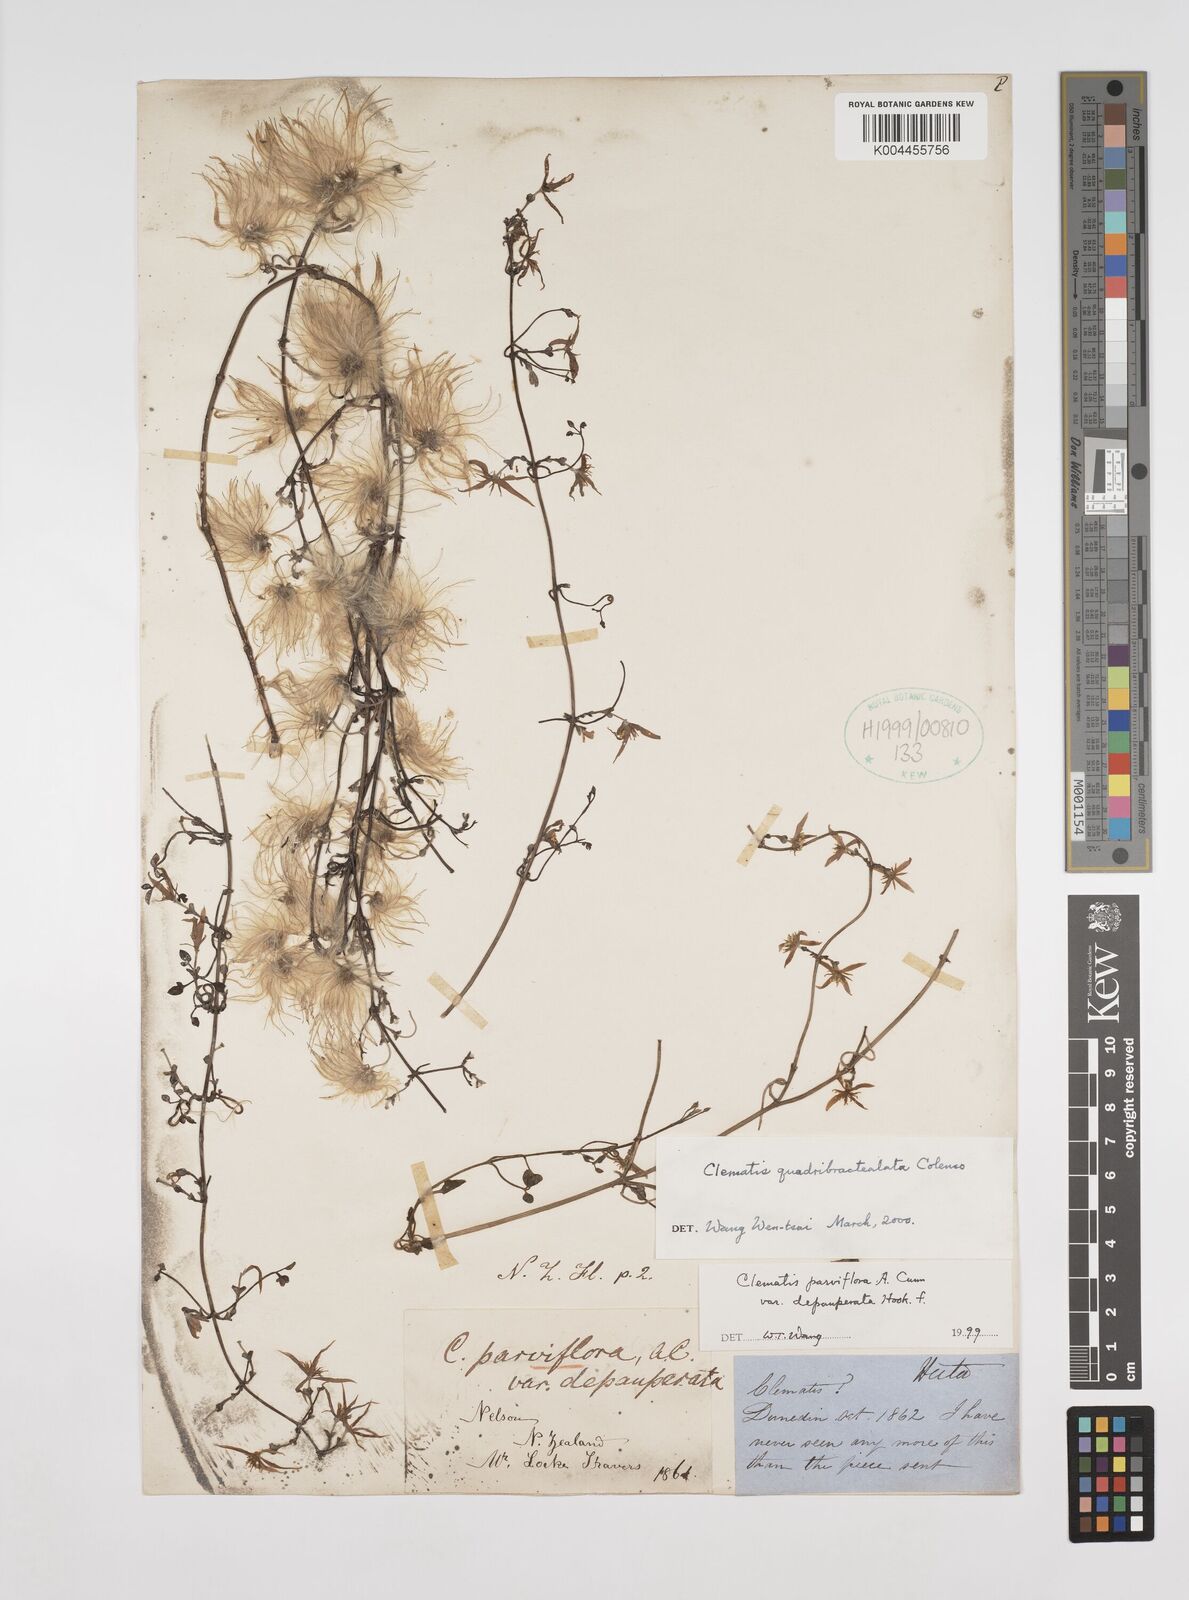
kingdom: Plantae
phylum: Tracheophyta
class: Magnoliopsida
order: Ranunculales
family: Ranunculaceae
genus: Clematis
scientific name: Clematis quadribracteolata
